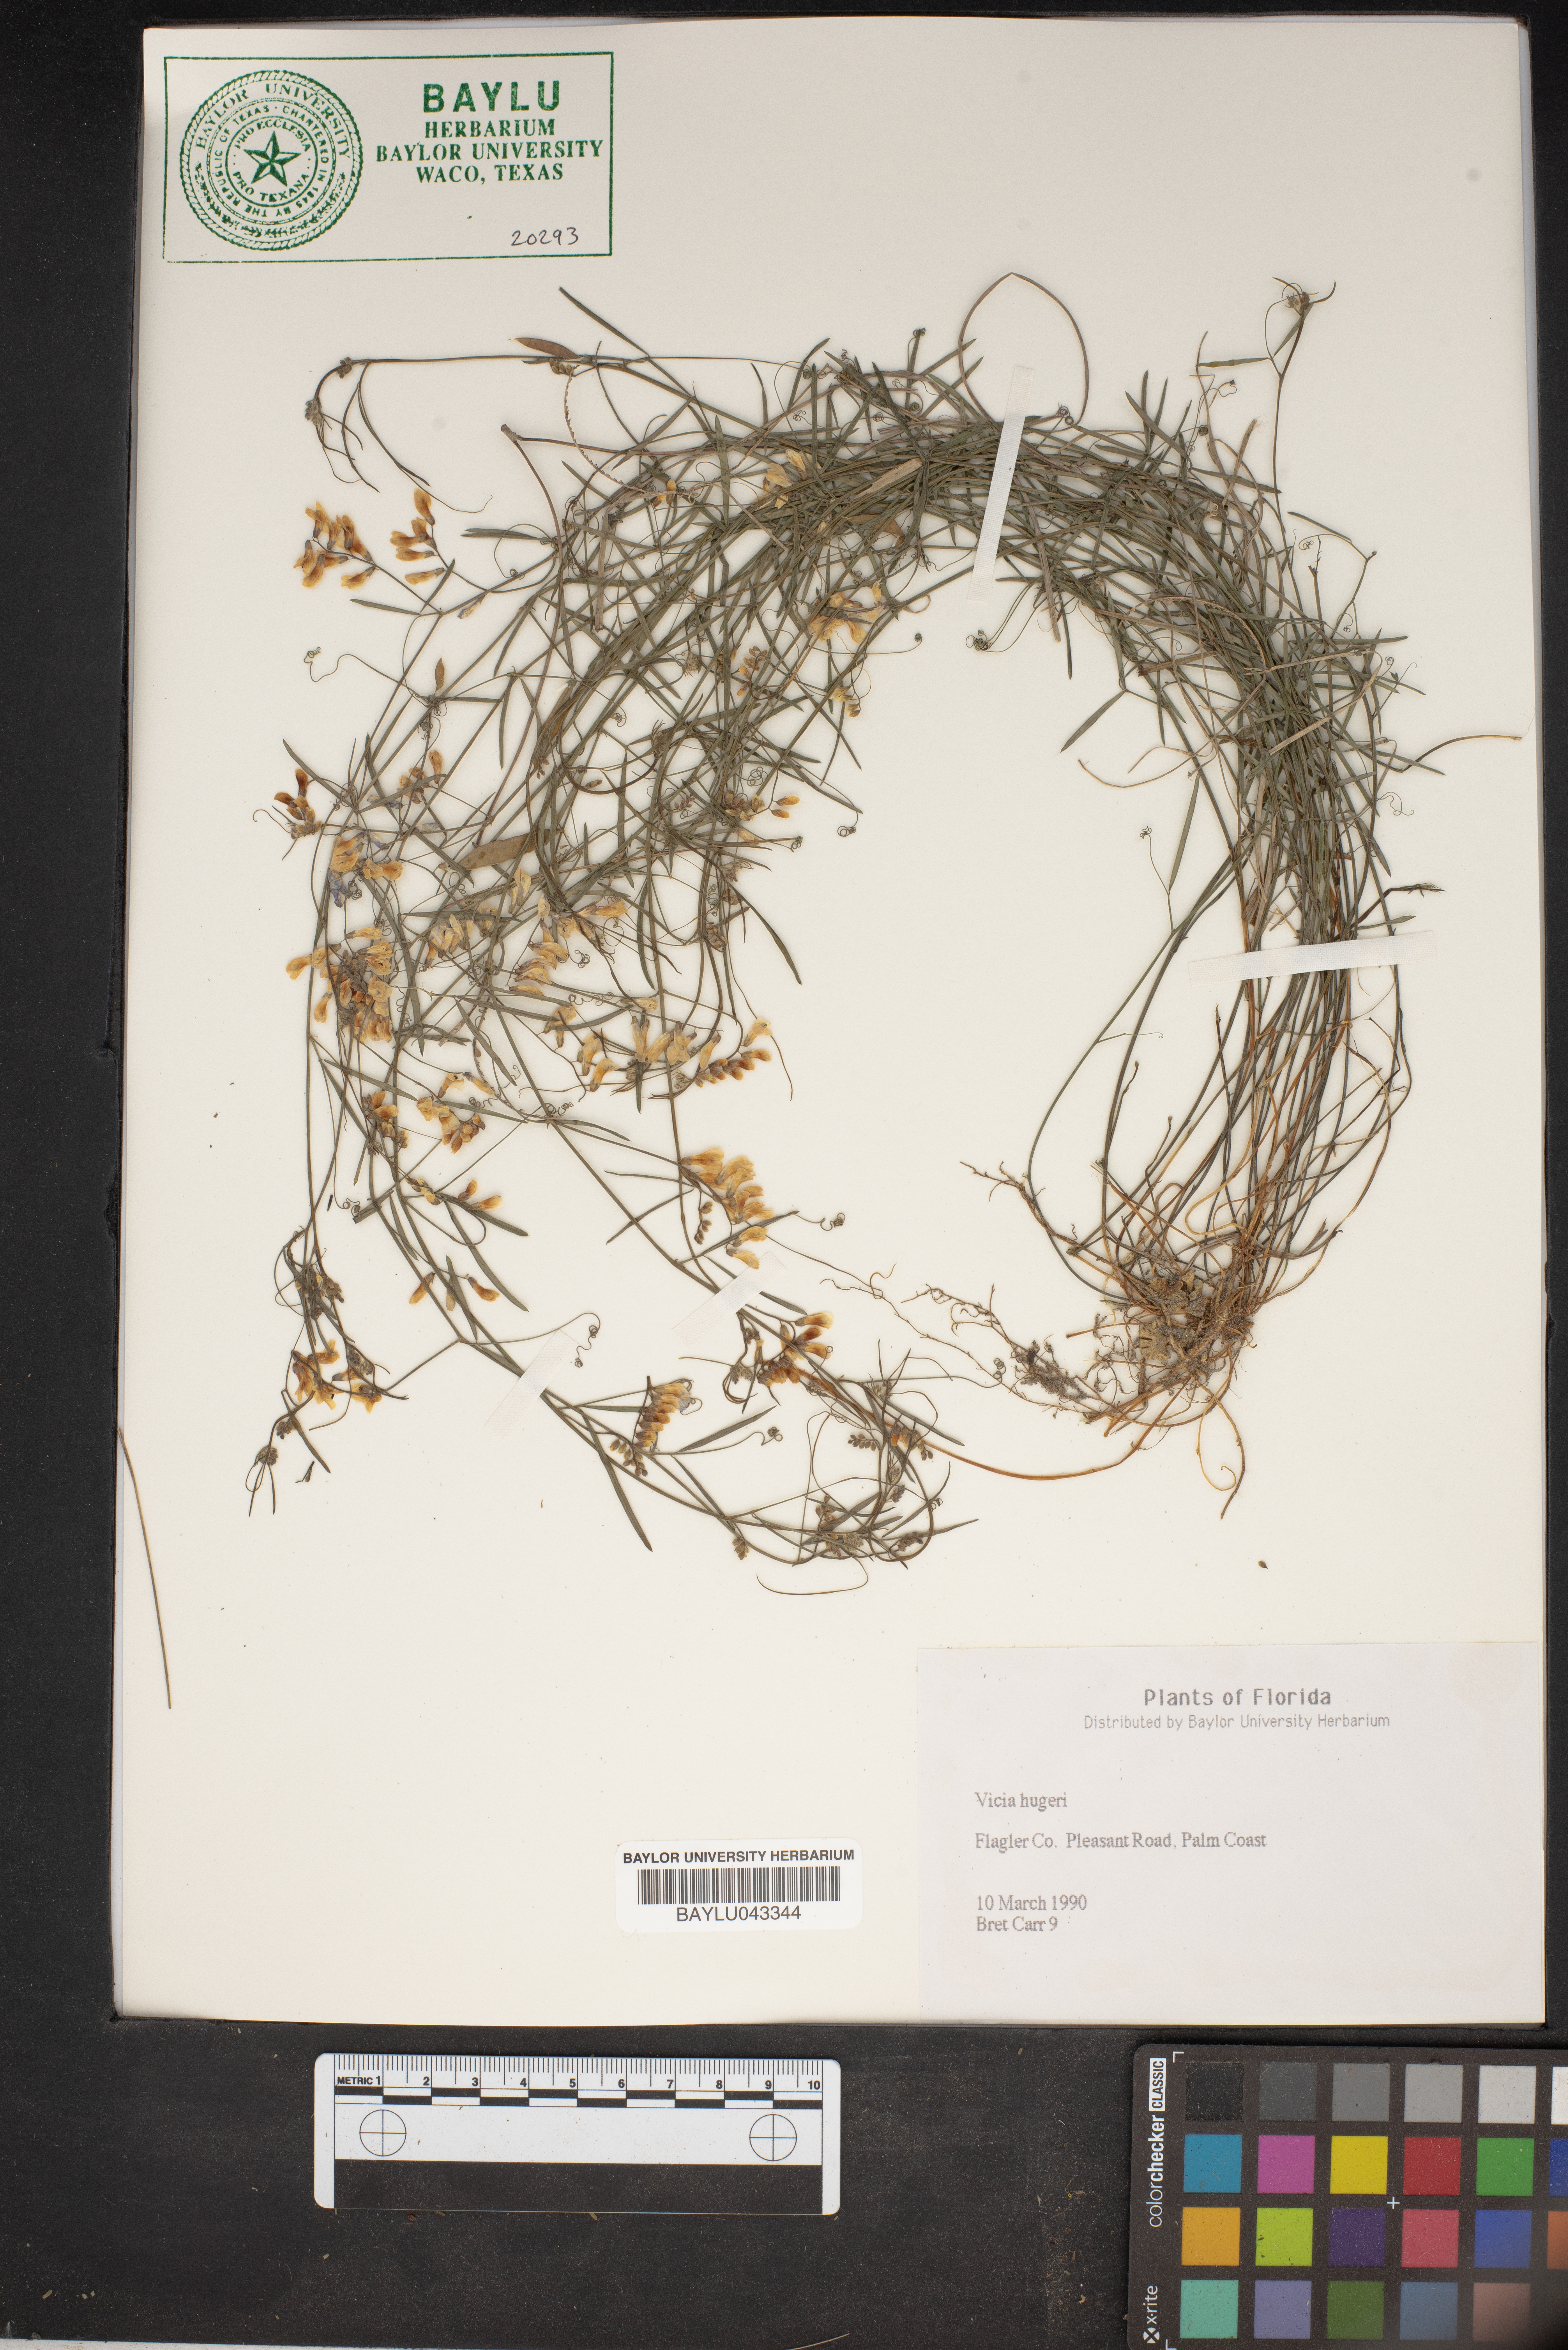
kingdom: Plantae
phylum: Tracheophyta
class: Magnoliopsida
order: Fabales
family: Fabaceae
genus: Vicia
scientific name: Vicia caroliniana
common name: Carolina vetch
